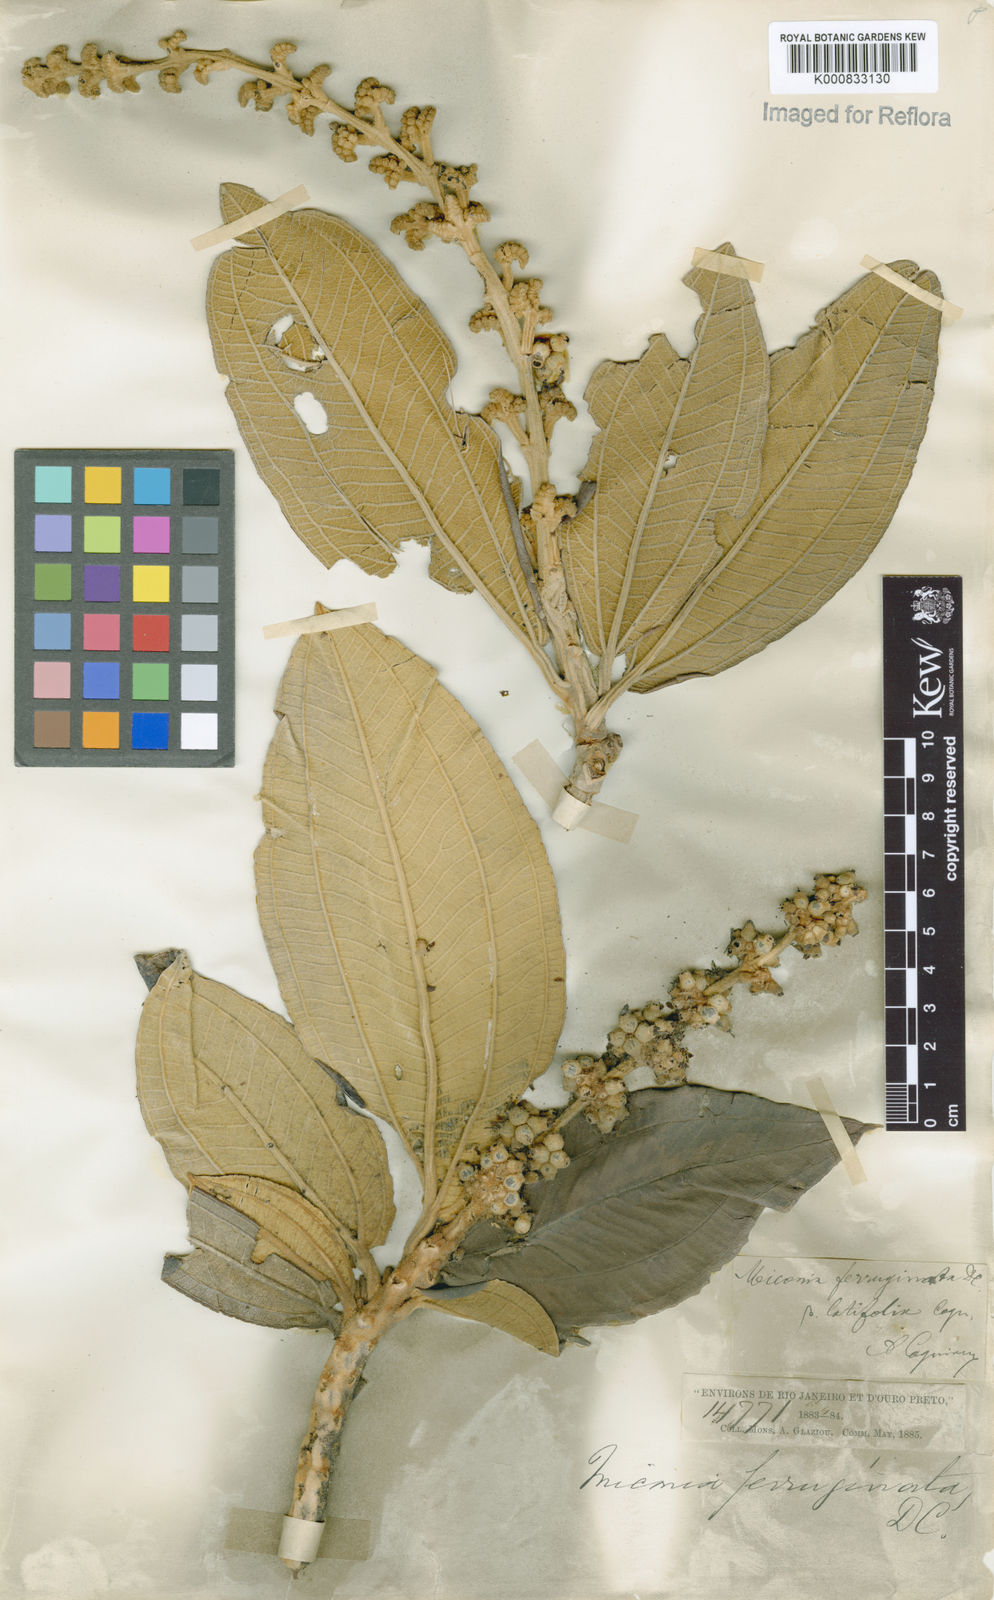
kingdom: Plantae
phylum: Tracheophyta
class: Magnoliopsida
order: Myrtales
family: Melastomataceae
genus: Miconia
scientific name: Miconia ferruginata
